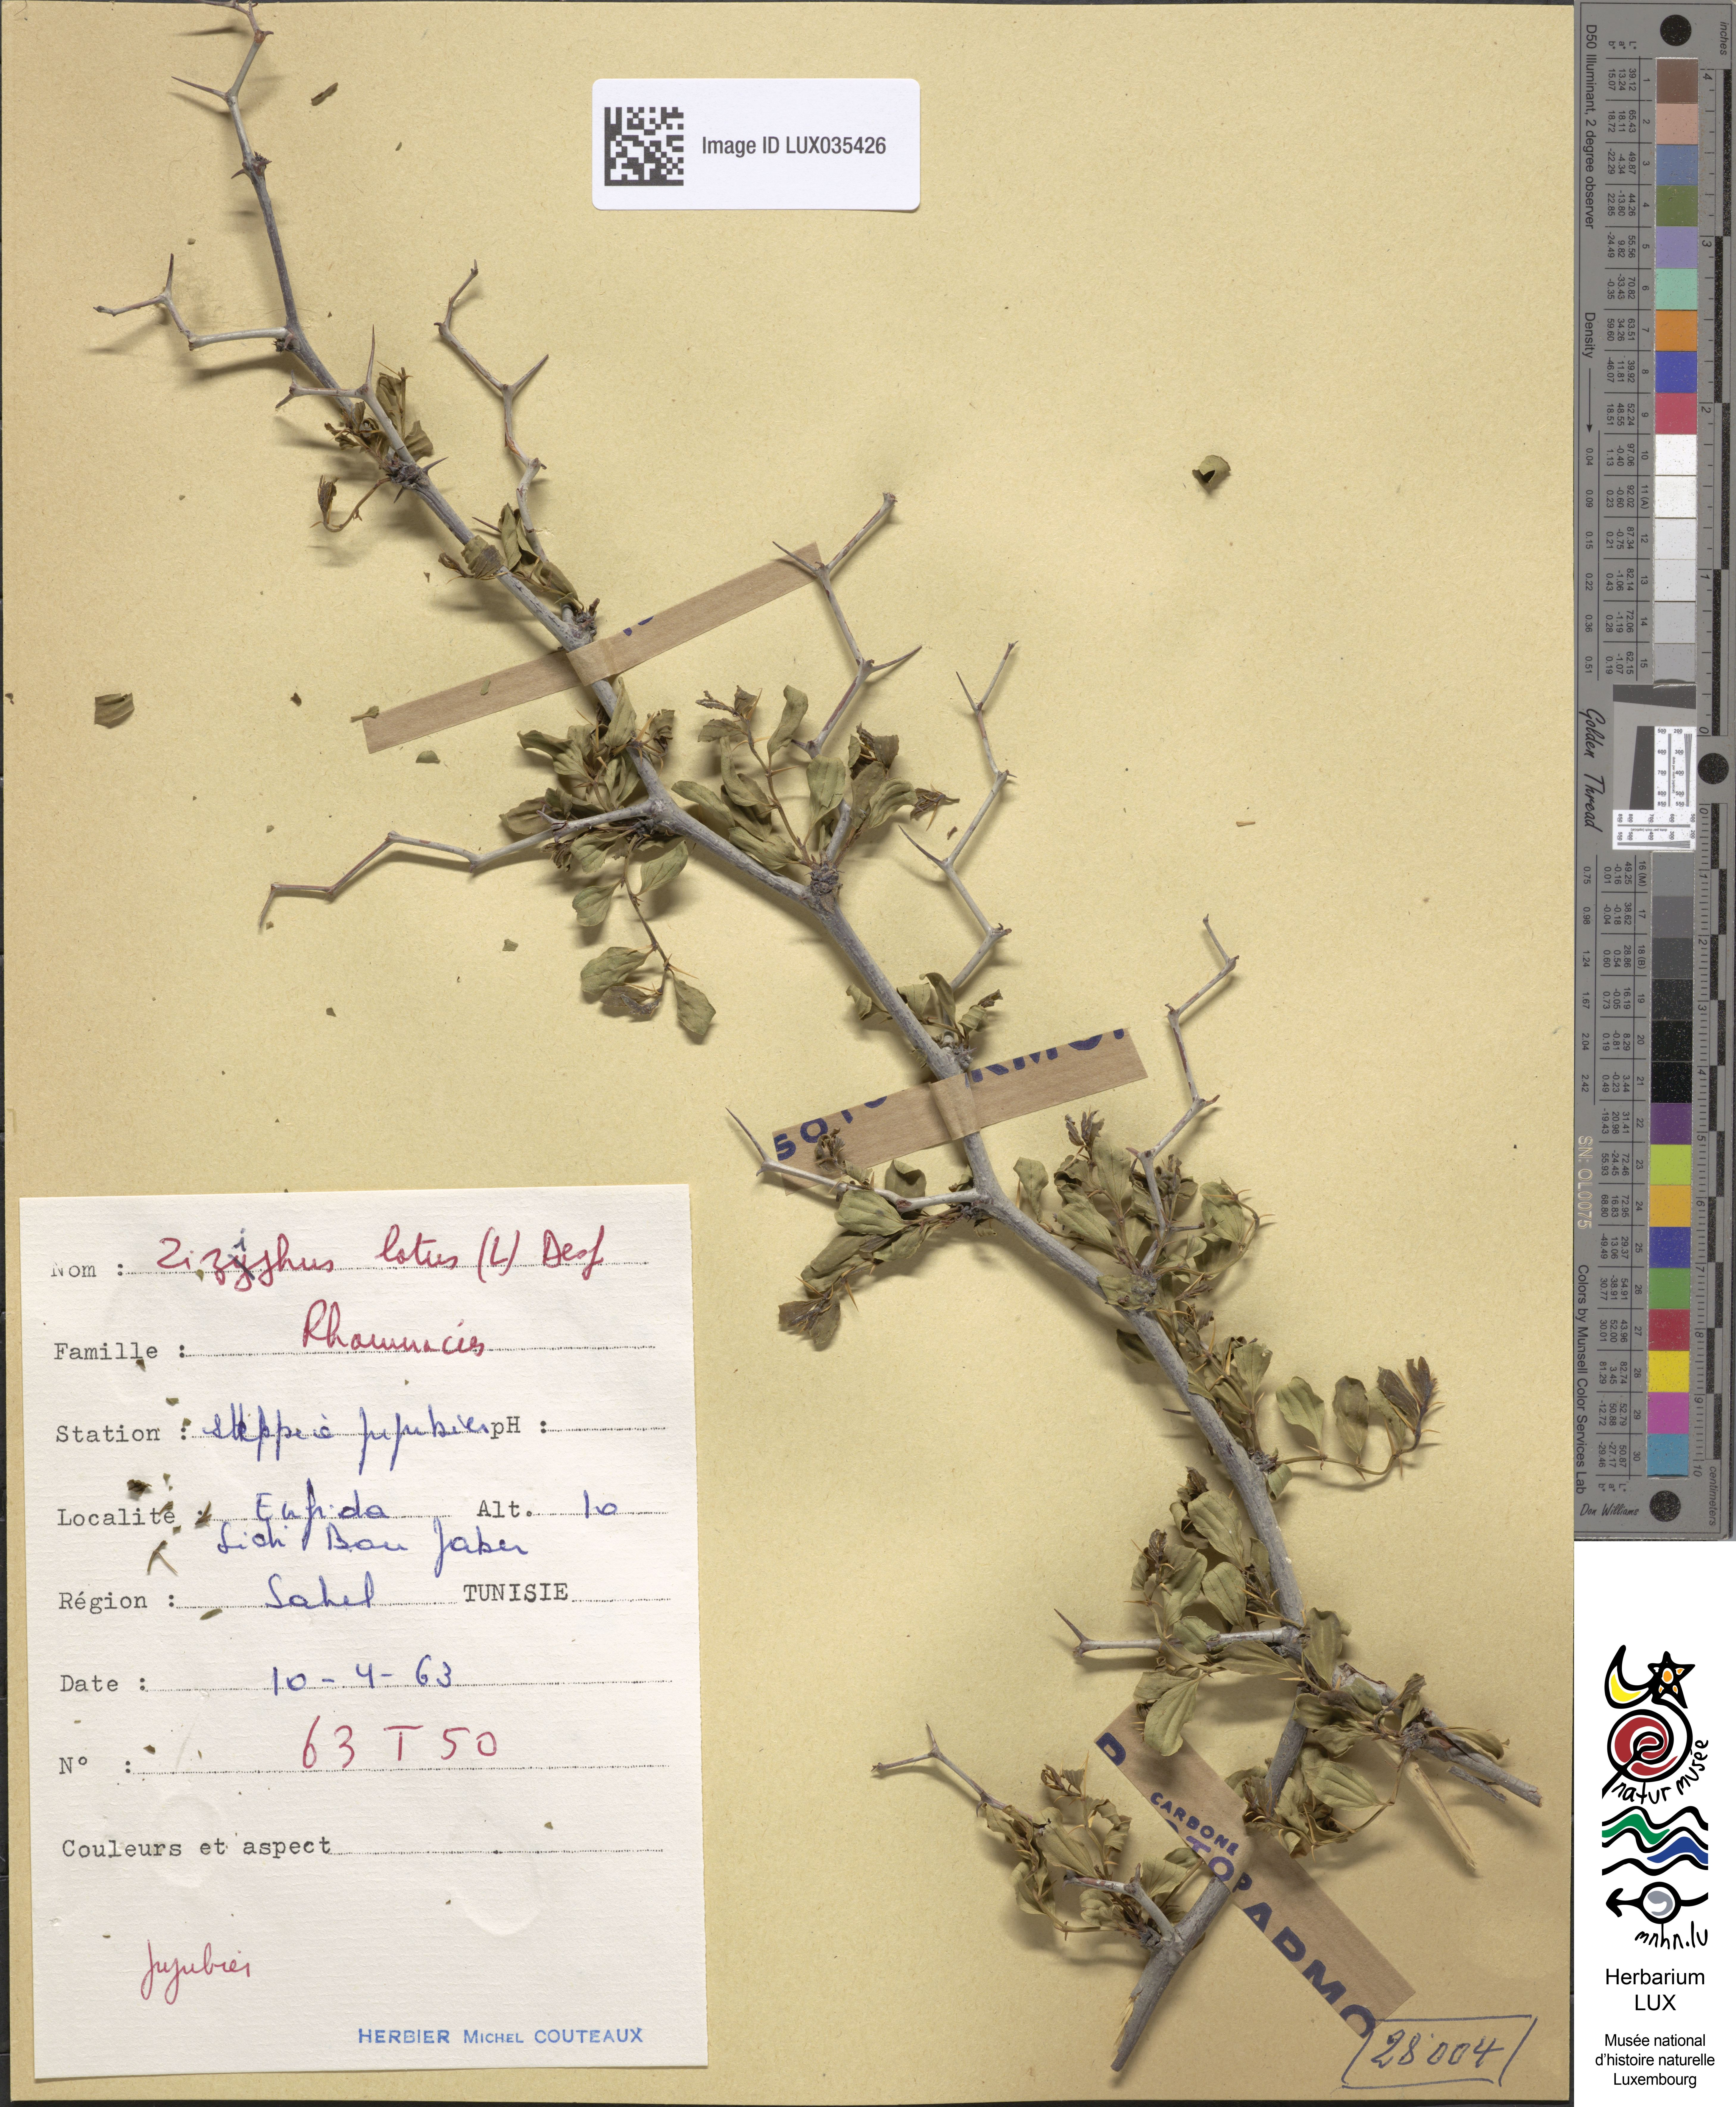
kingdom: Plantae
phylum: Tracheophyta
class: Magnoliopsida
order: Rosales
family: Rhamnaceae
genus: Ziziphus
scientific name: Ziziphus lotus
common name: Lotus
